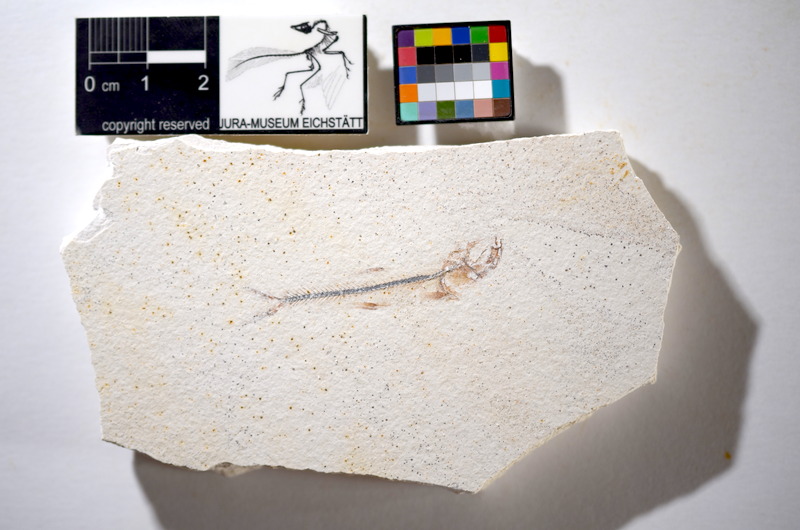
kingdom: Animalia
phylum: Chordata
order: Salmoniformes
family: Orthogonikleithridae
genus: Orthogonikleithrus
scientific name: Orthogonikleithrus hoelli
